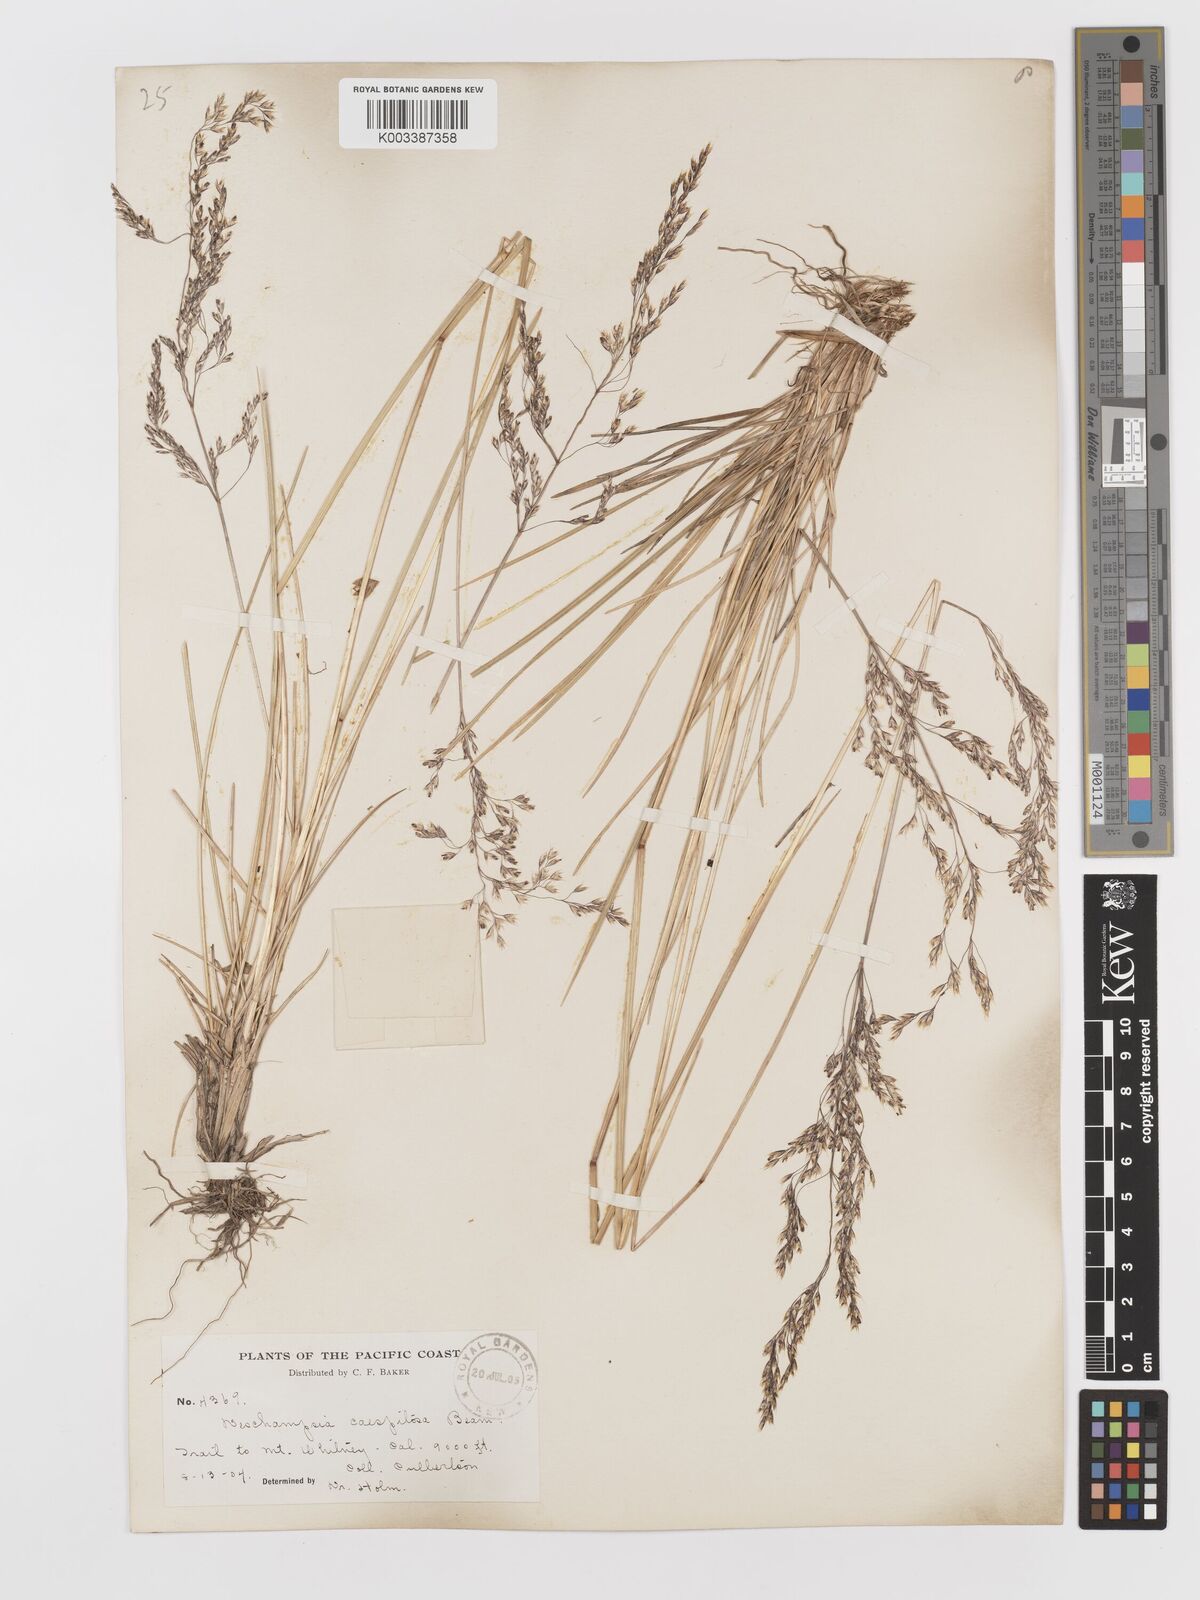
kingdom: Plantae
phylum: Tracheophyta
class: Liliopsida
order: Poales
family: Poaceae
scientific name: Poaceae
